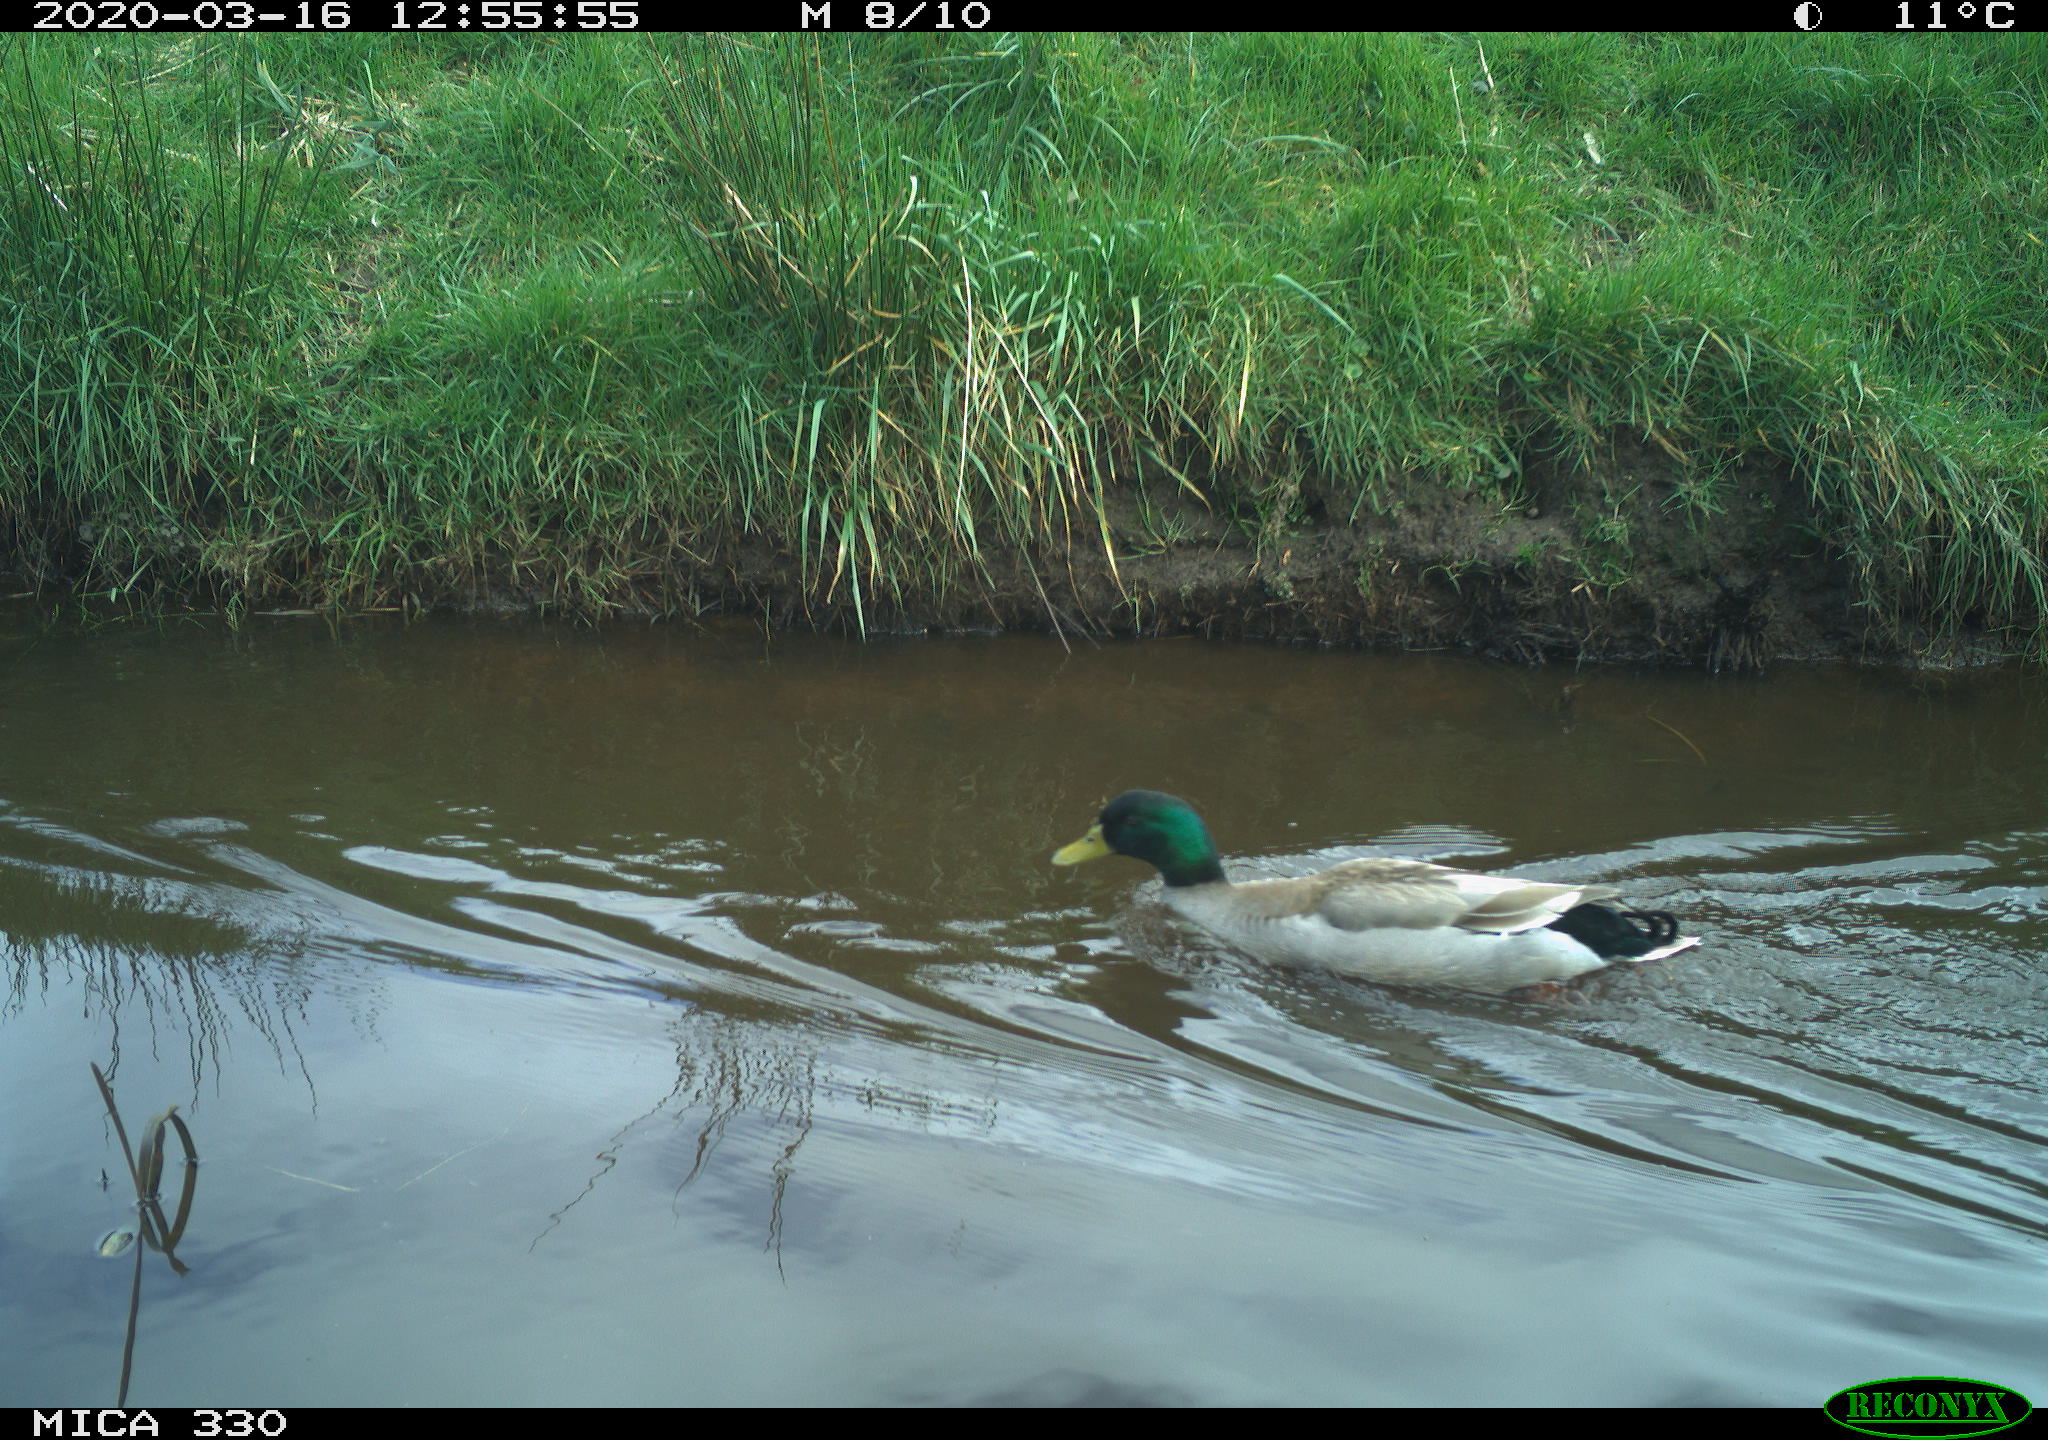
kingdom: Animalia
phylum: Chordata
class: Aves
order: Anseriformes
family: Anatidae
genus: Anas
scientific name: Anas platyrhynchos
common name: Mallard
